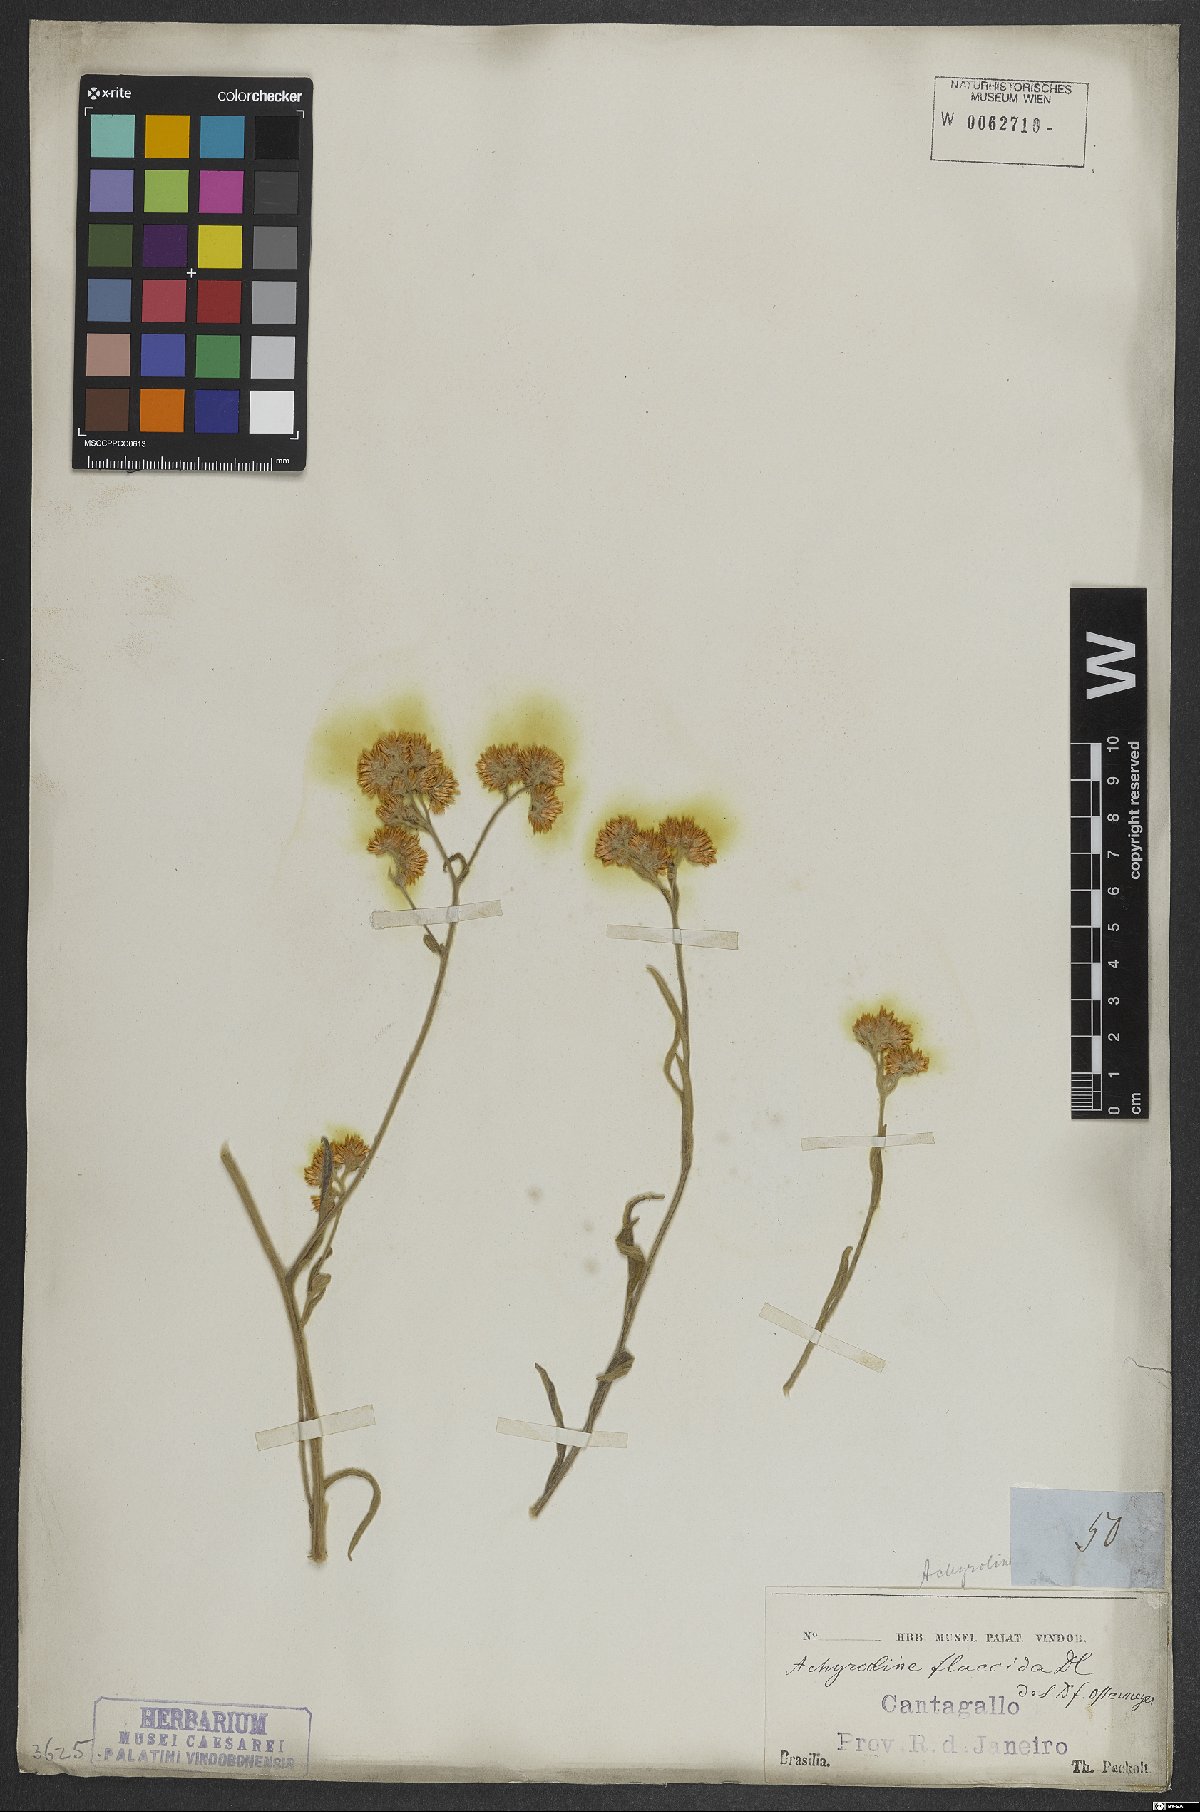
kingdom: Plantae
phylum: Tracheophyta
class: Magnoliopsida
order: Asterales
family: Asteraceae
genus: Achyrocline
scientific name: Achyrocline flaccida
